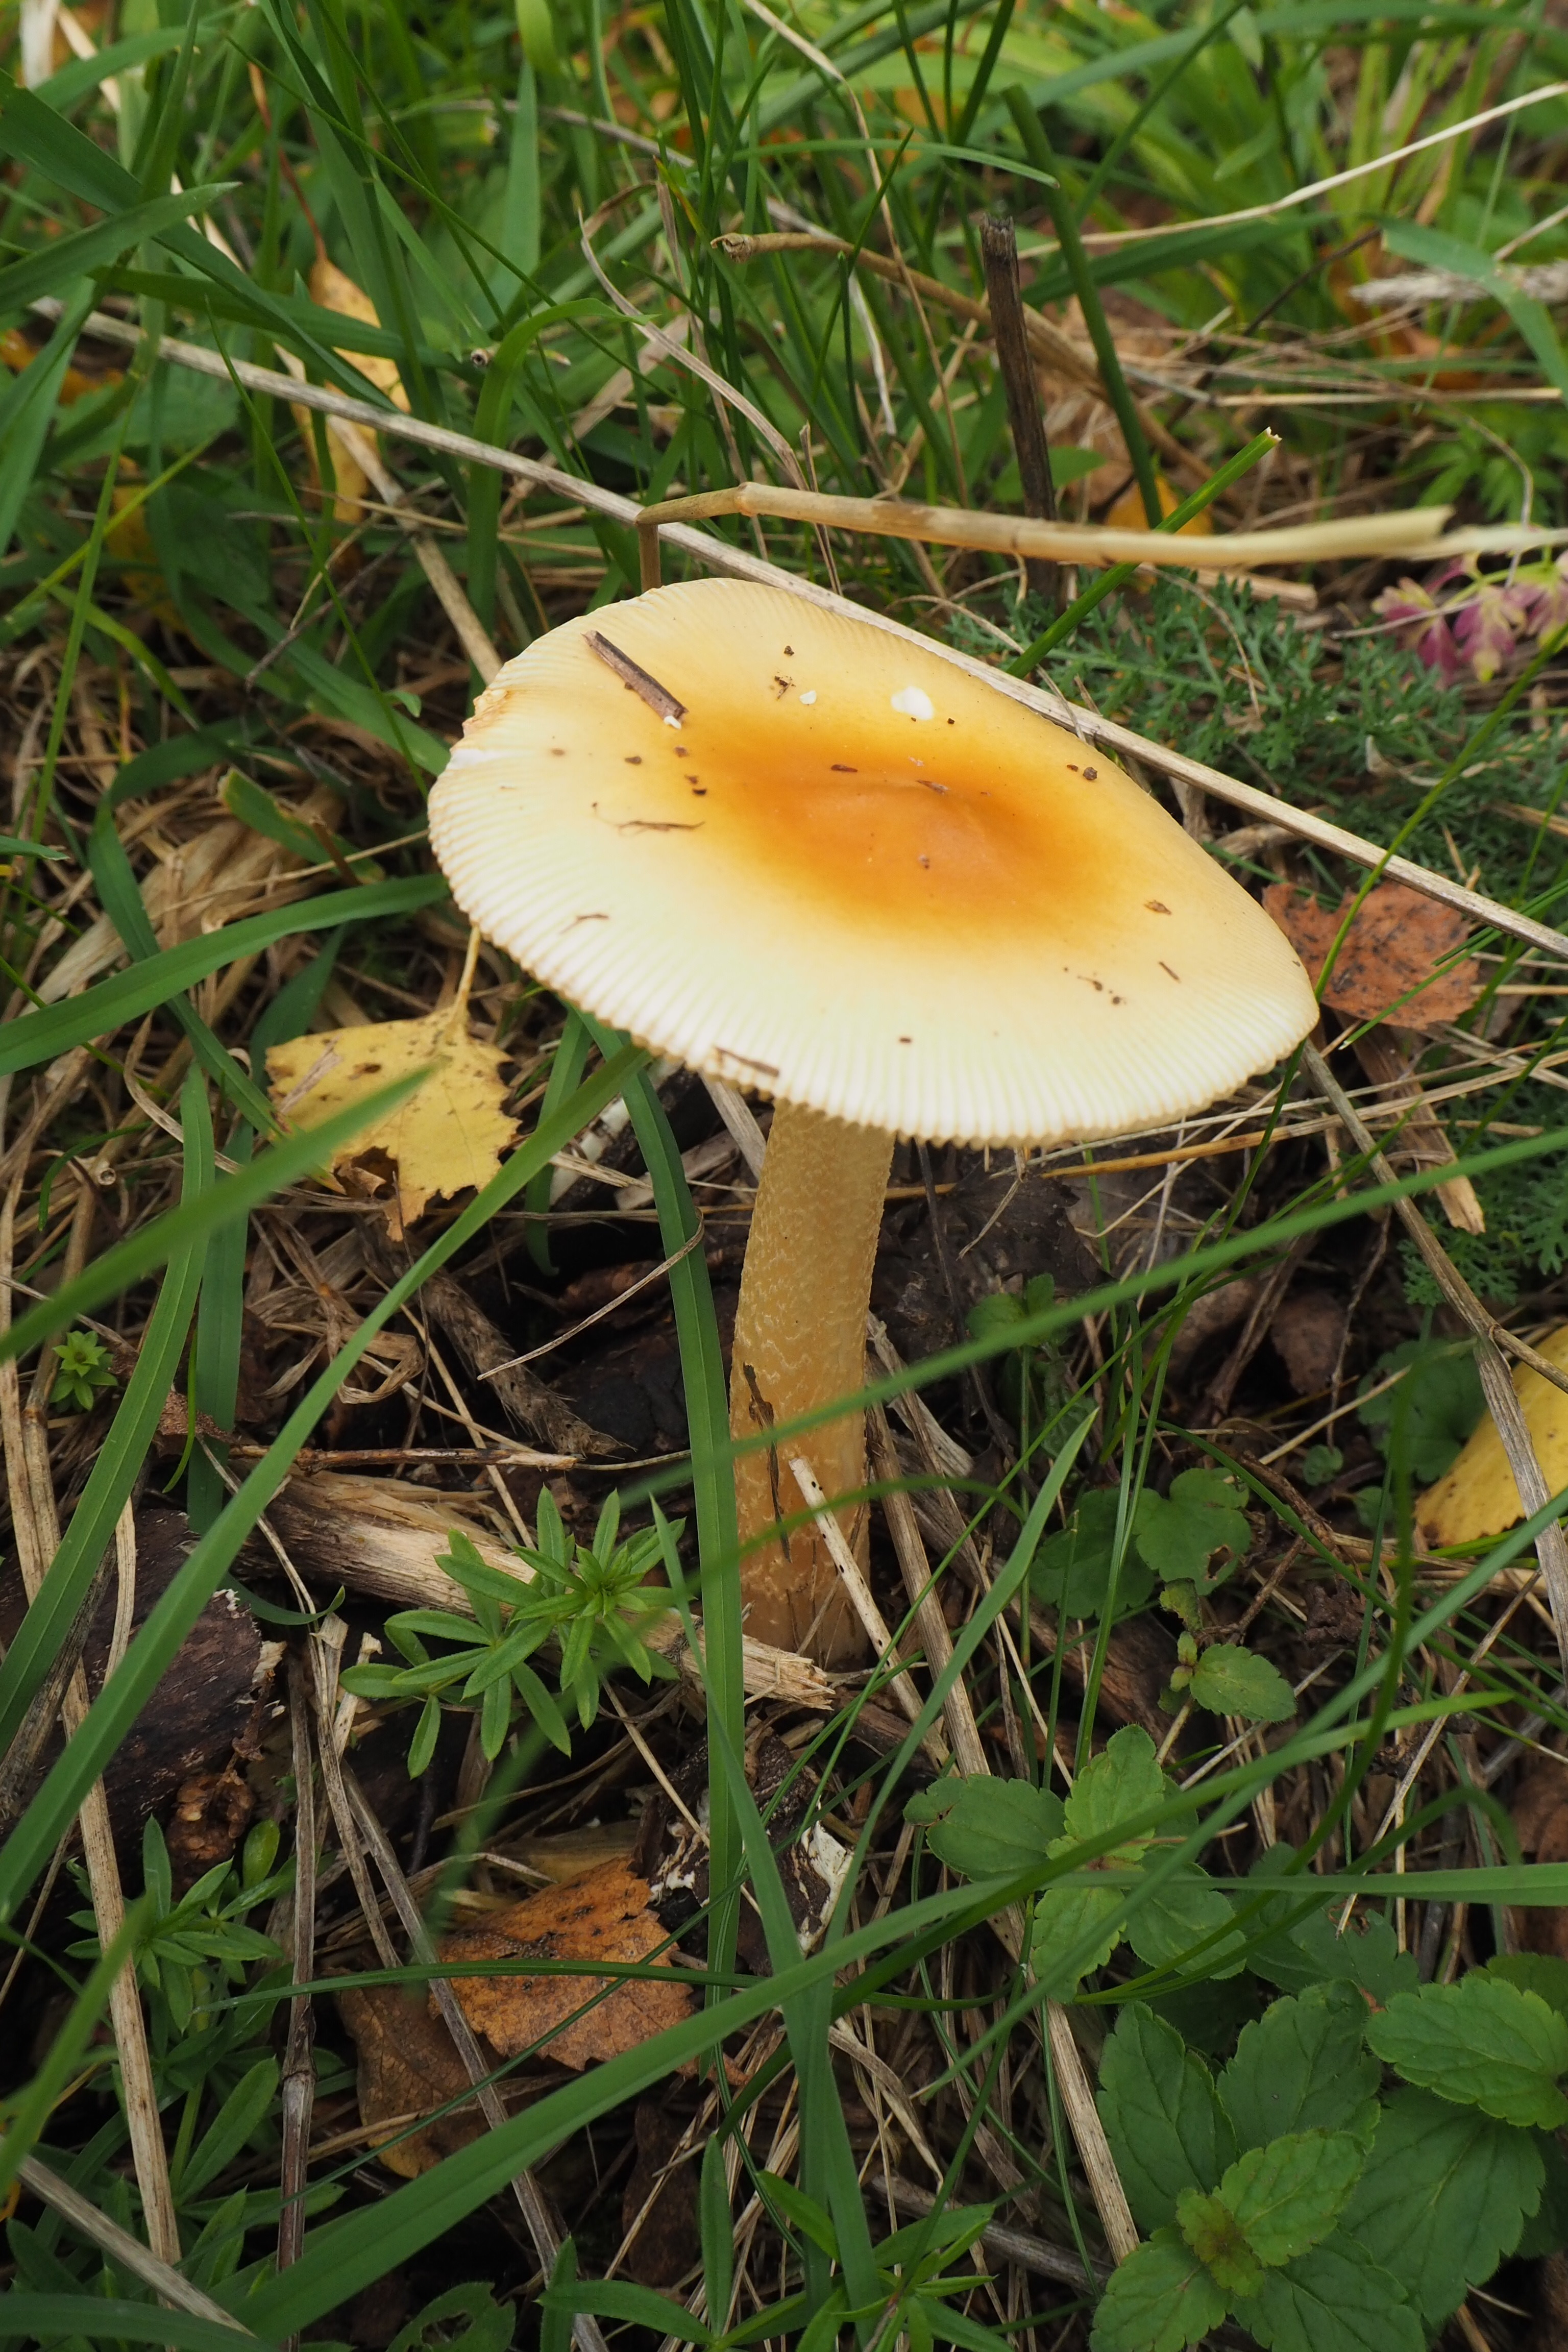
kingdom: Fungi
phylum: Basidiomycota
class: Agaricomycetes
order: Agaricales
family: Amanitaceae
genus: Amanita
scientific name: Amanita crocea
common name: Orange grisette
